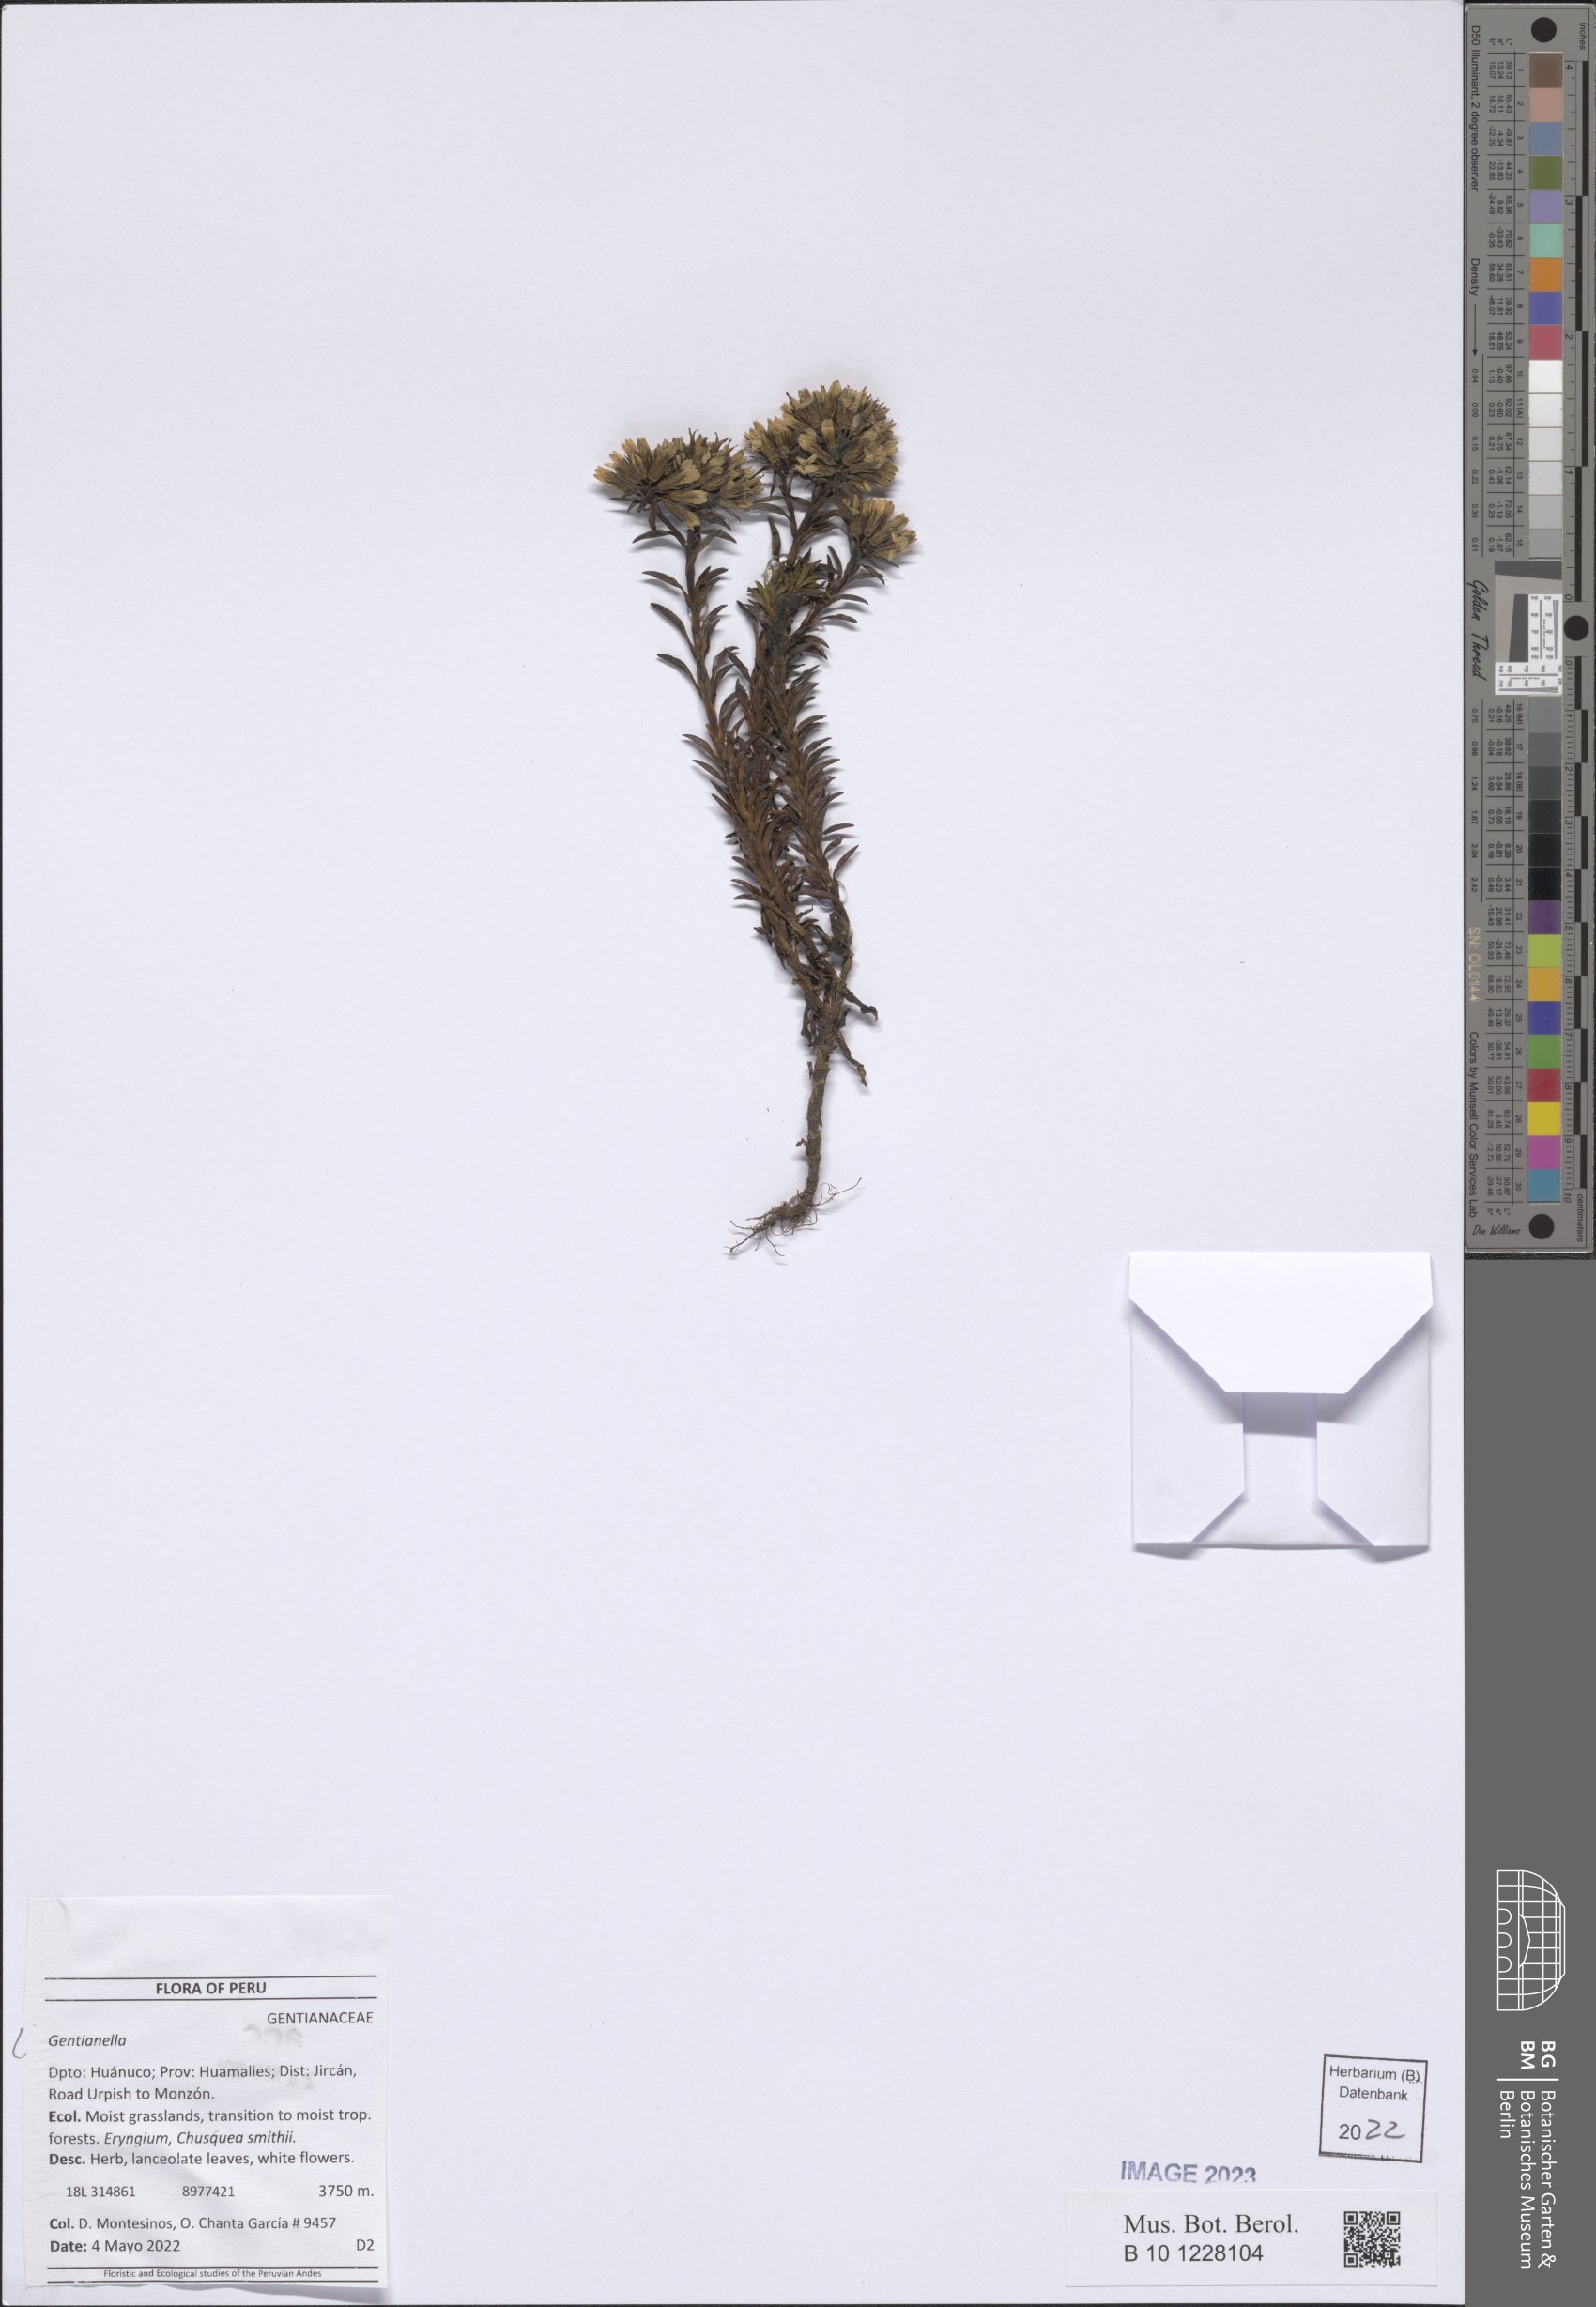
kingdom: Plantae
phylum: Tracheophyta
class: Magnoliopsida
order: Gentianales
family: Gentianaceae
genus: Gentianella
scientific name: Gentianella
